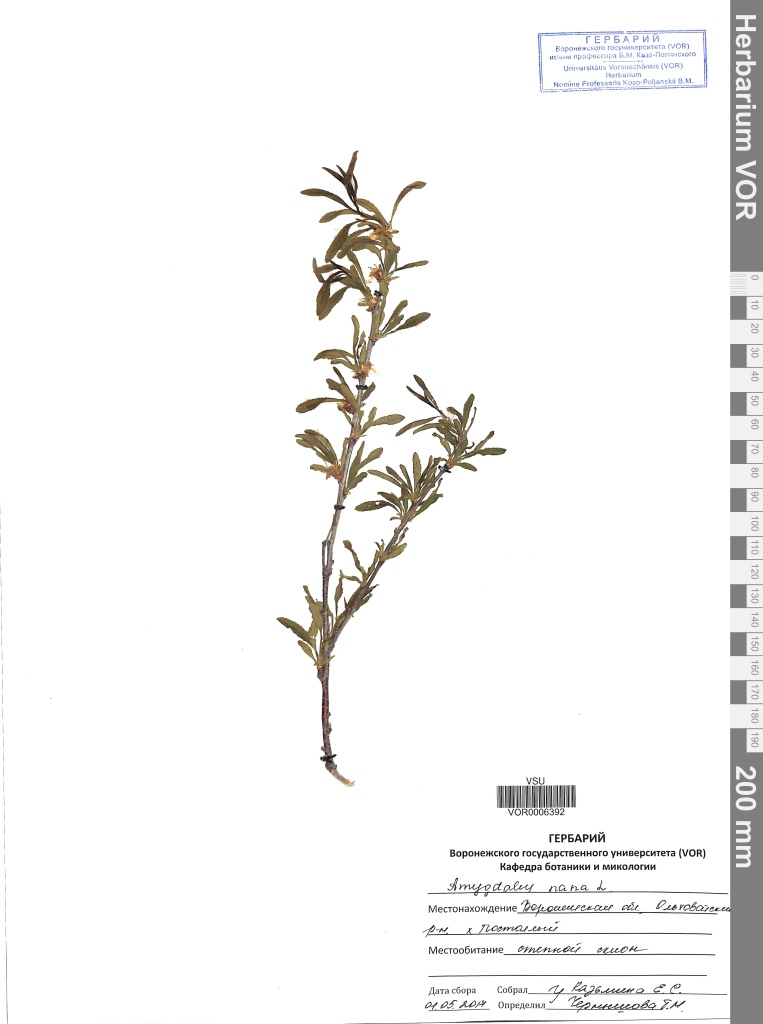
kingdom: Plantae
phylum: Tracheophyta
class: Magnoliopsida
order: Rosales
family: Rosaceae
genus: Prunus
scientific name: Prunus tenella
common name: Dwarf russian almond
